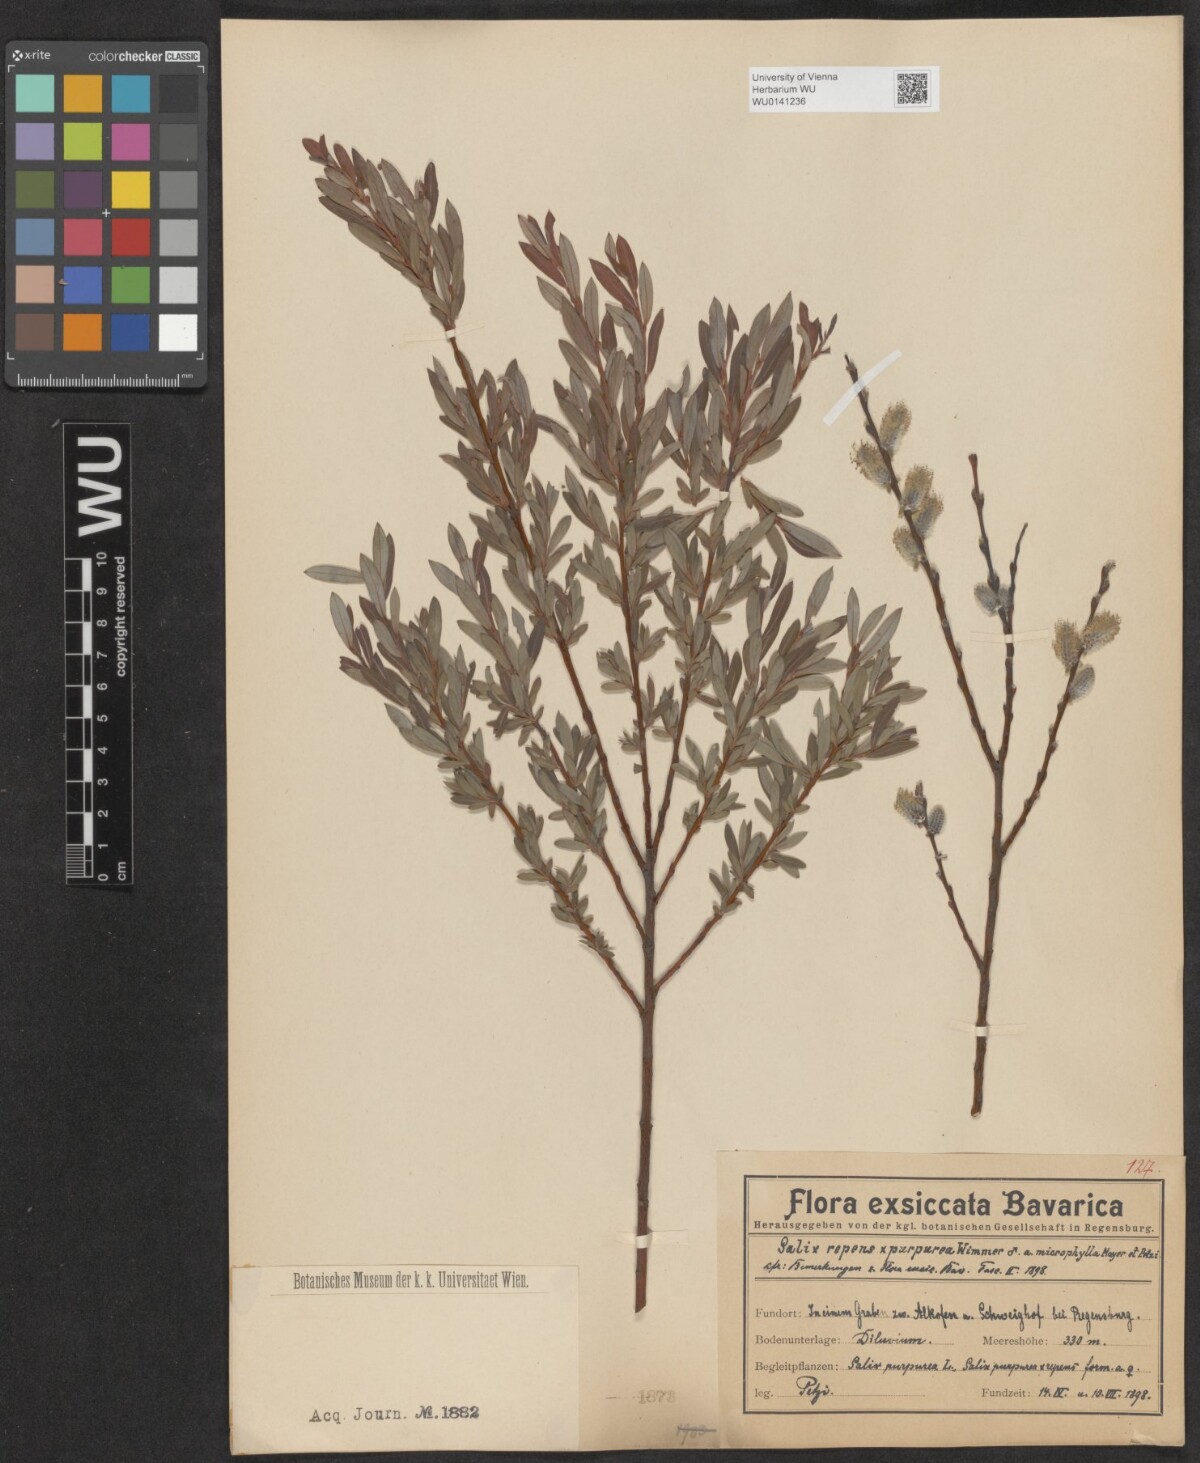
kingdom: Plantae
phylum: Tracheophyta
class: Magnoliopsida
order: Malpighiales
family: Salicaceae
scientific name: Salicaceae
